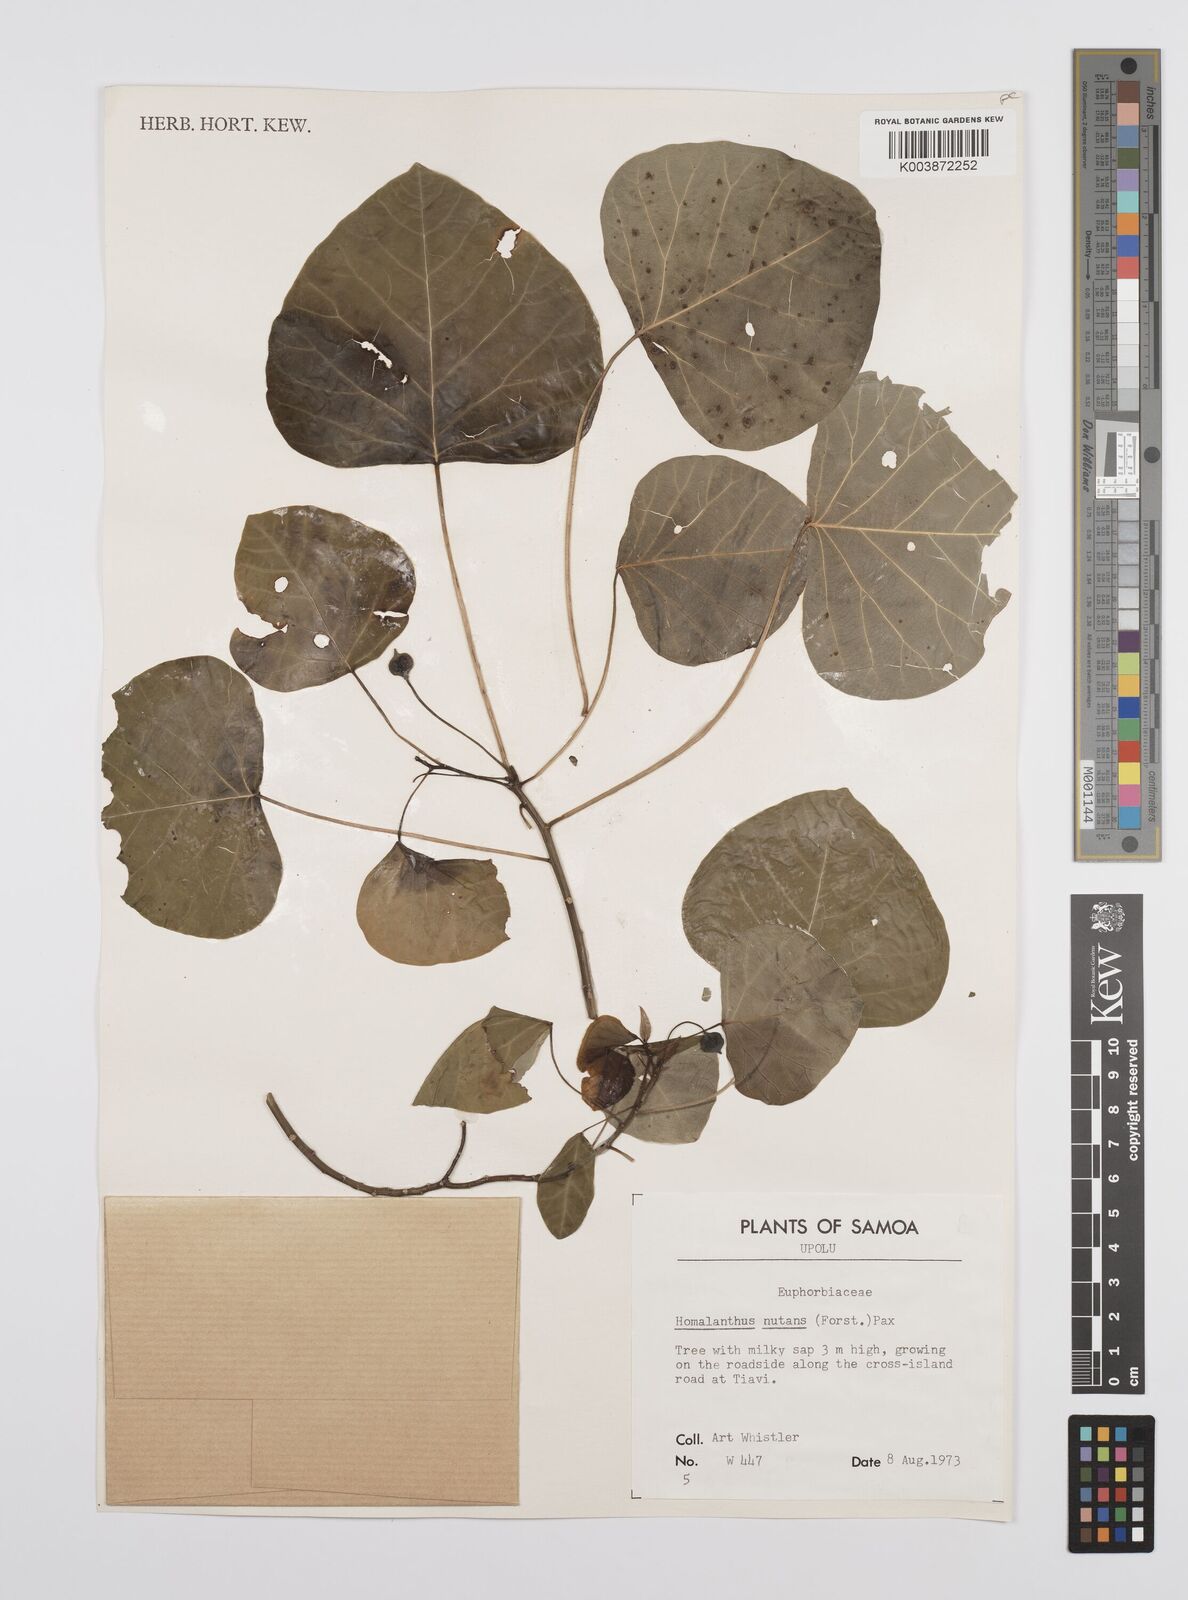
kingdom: Plantae
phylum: Tracheophyta
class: Magnoliopsida
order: Malpighiales
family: Euphorbiaceae
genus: Homalanthus
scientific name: Homalanthus nutans
